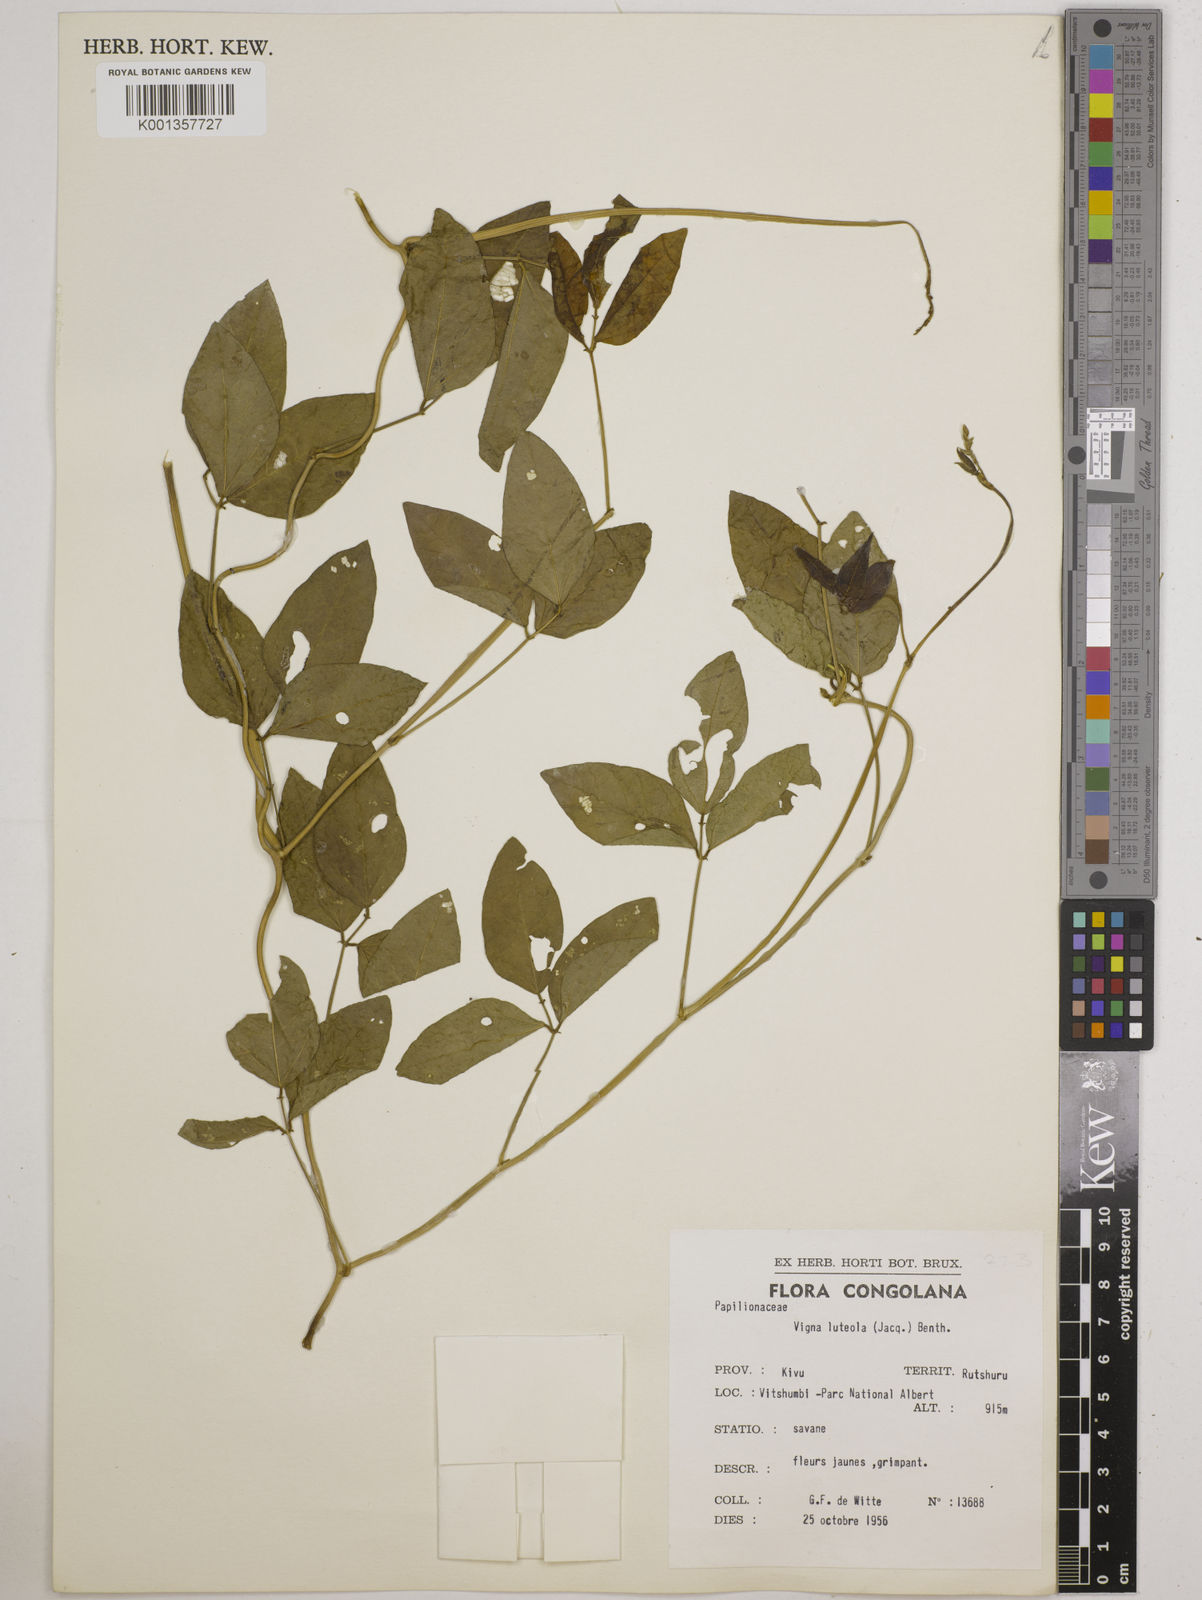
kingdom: Plantae
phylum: Tracheophyta
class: Magnoliopsida
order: Fabales
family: Fabaceae
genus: Vigna
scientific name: Vigna luteola
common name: Hairypod cowpea
